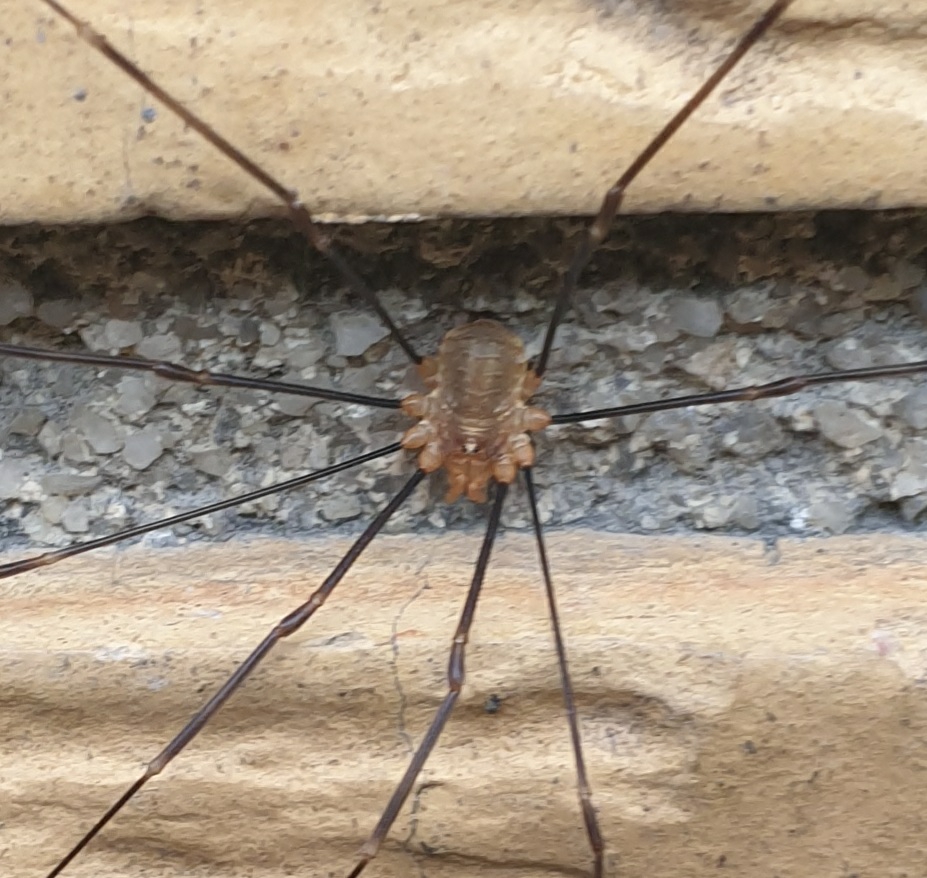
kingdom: Animalia
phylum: Arthropoda
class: Arachnida
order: Opiliones
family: Phalangiidae
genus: Opilio
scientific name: Opilio canestrinii
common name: Orange vægmejer
